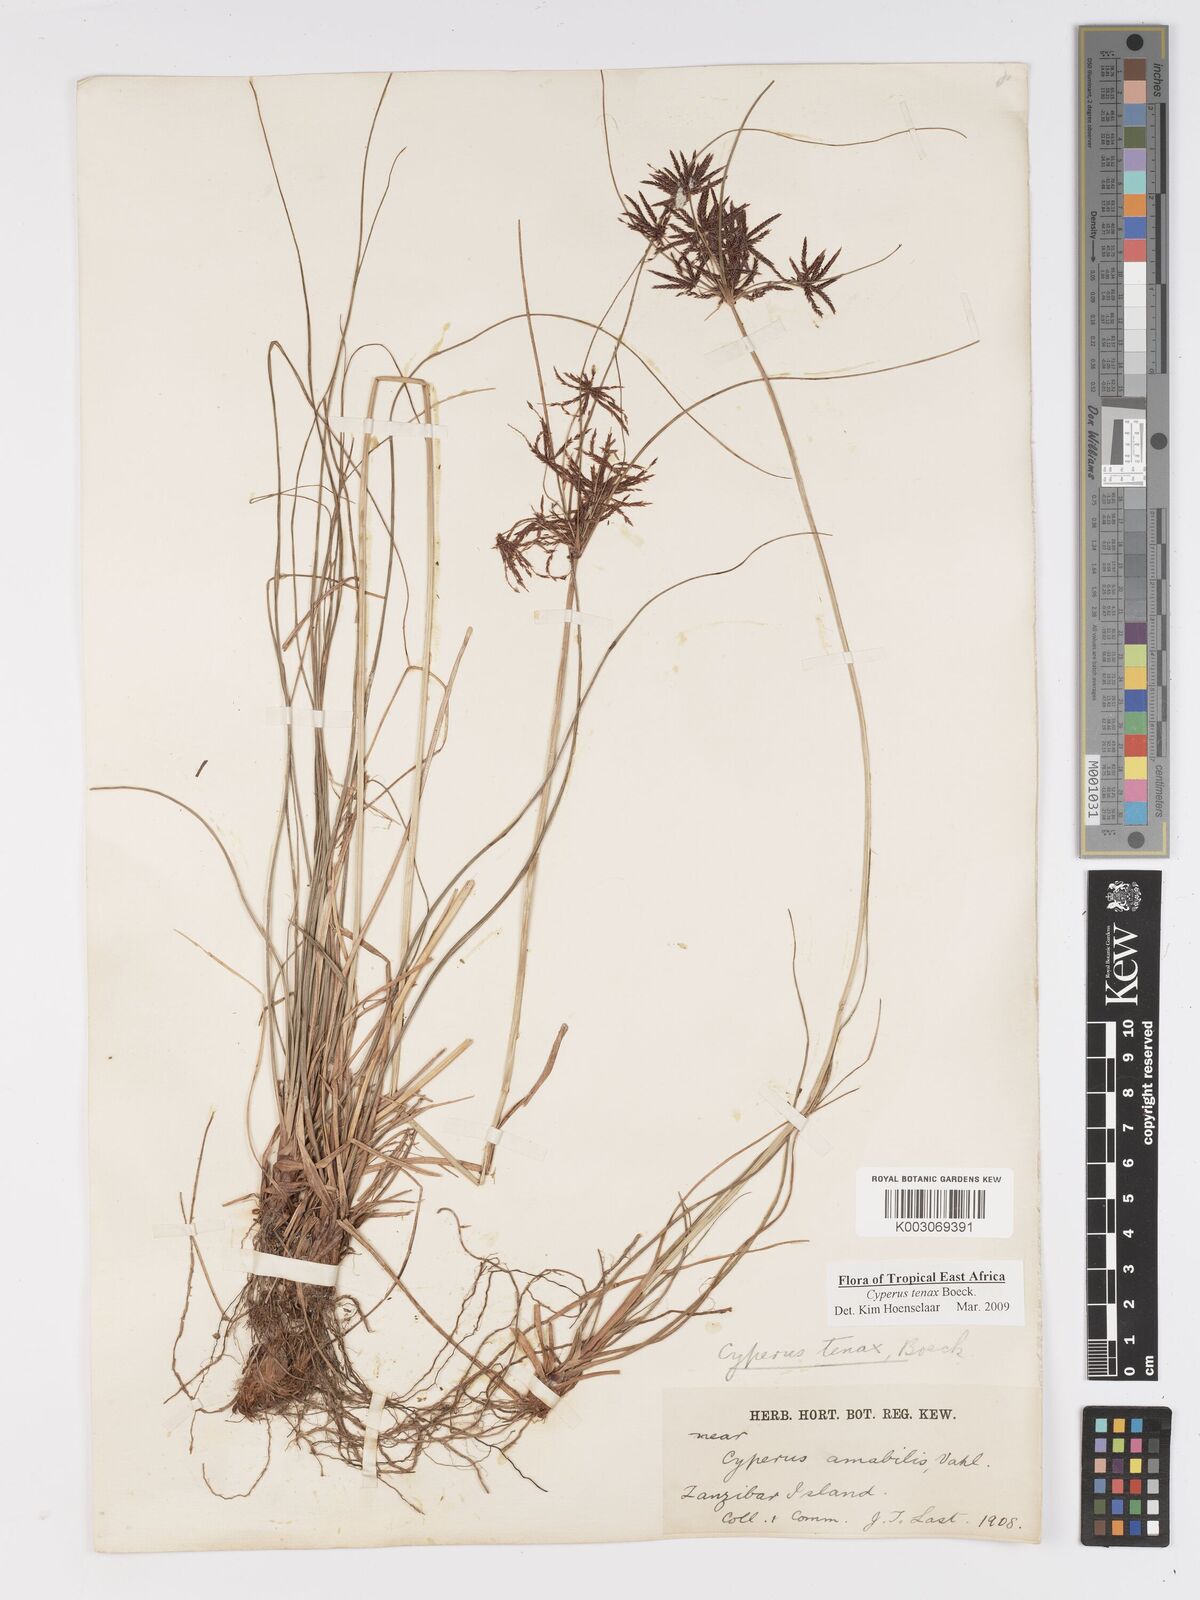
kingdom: Plantae
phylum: Tracheophyta
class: Liliopsida
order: Poales
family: Cyperaceae
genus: Cyperus
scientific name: Cyperus tenax
